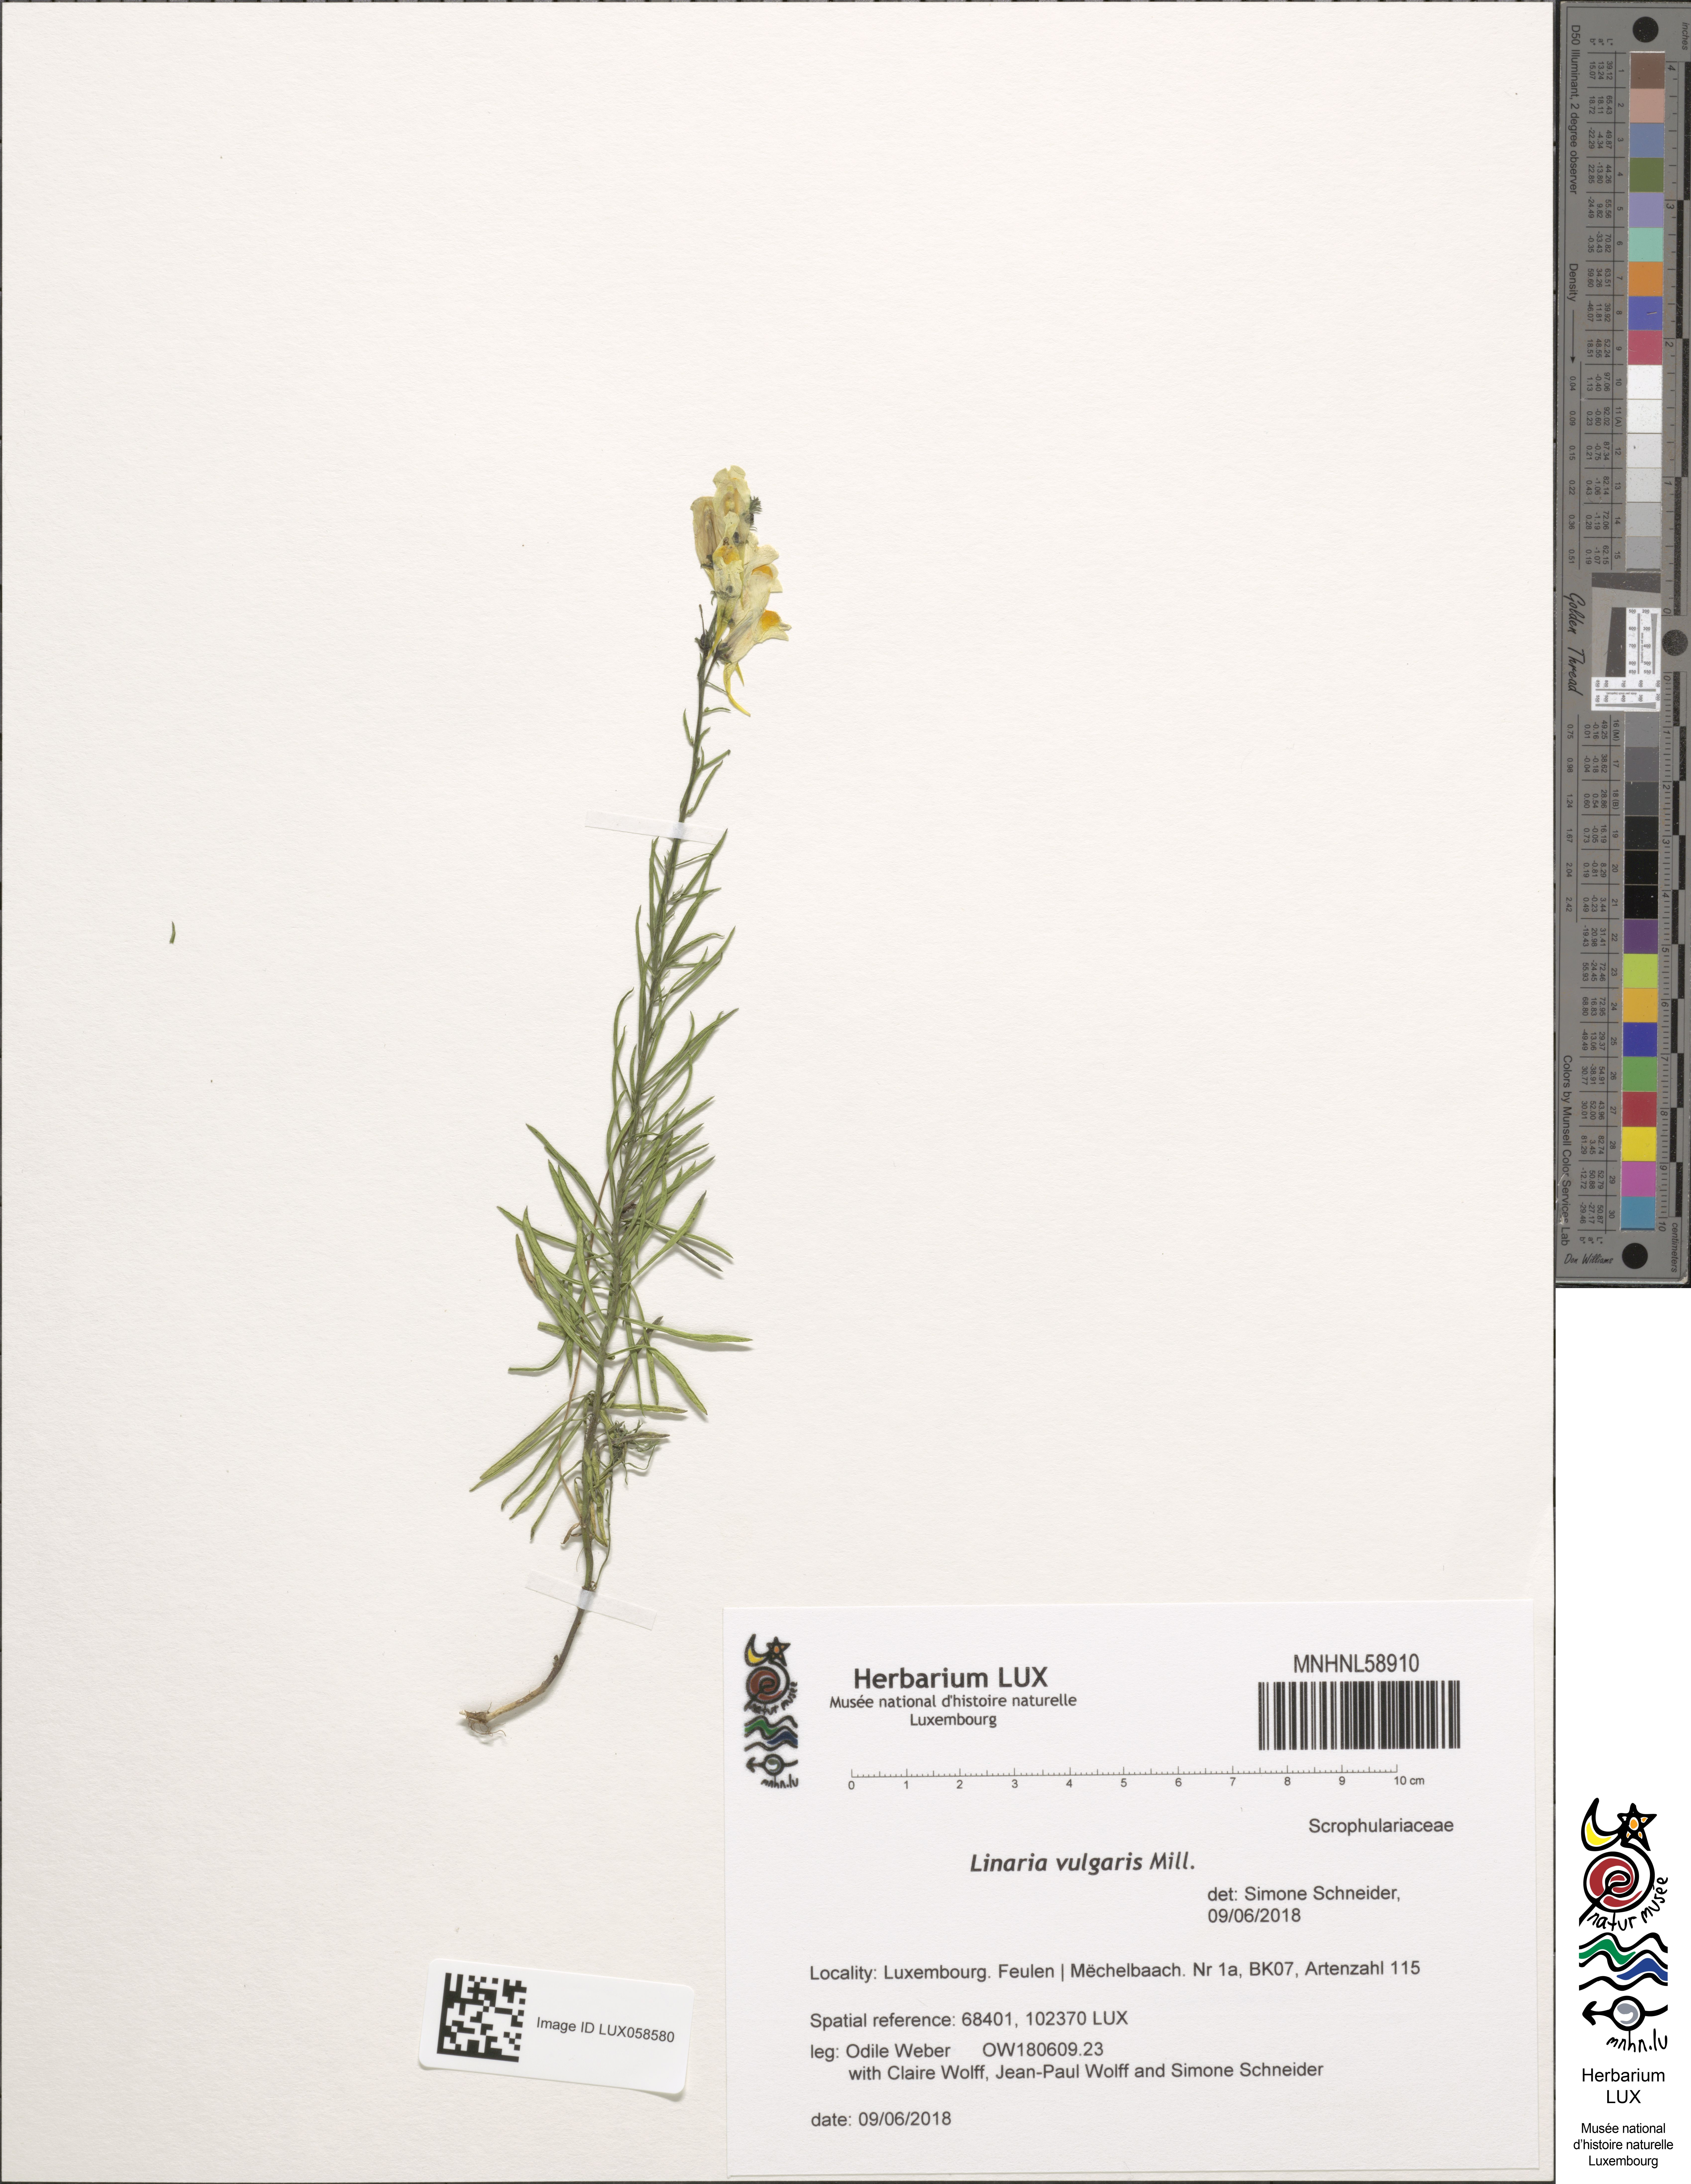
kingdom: Plantae
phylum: Tracheophyta
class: Magnoliopsida
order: Lamiales
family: Plantaginaceae
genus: Linaria
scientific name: Linaria vulgaris
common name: Butter and eggs
